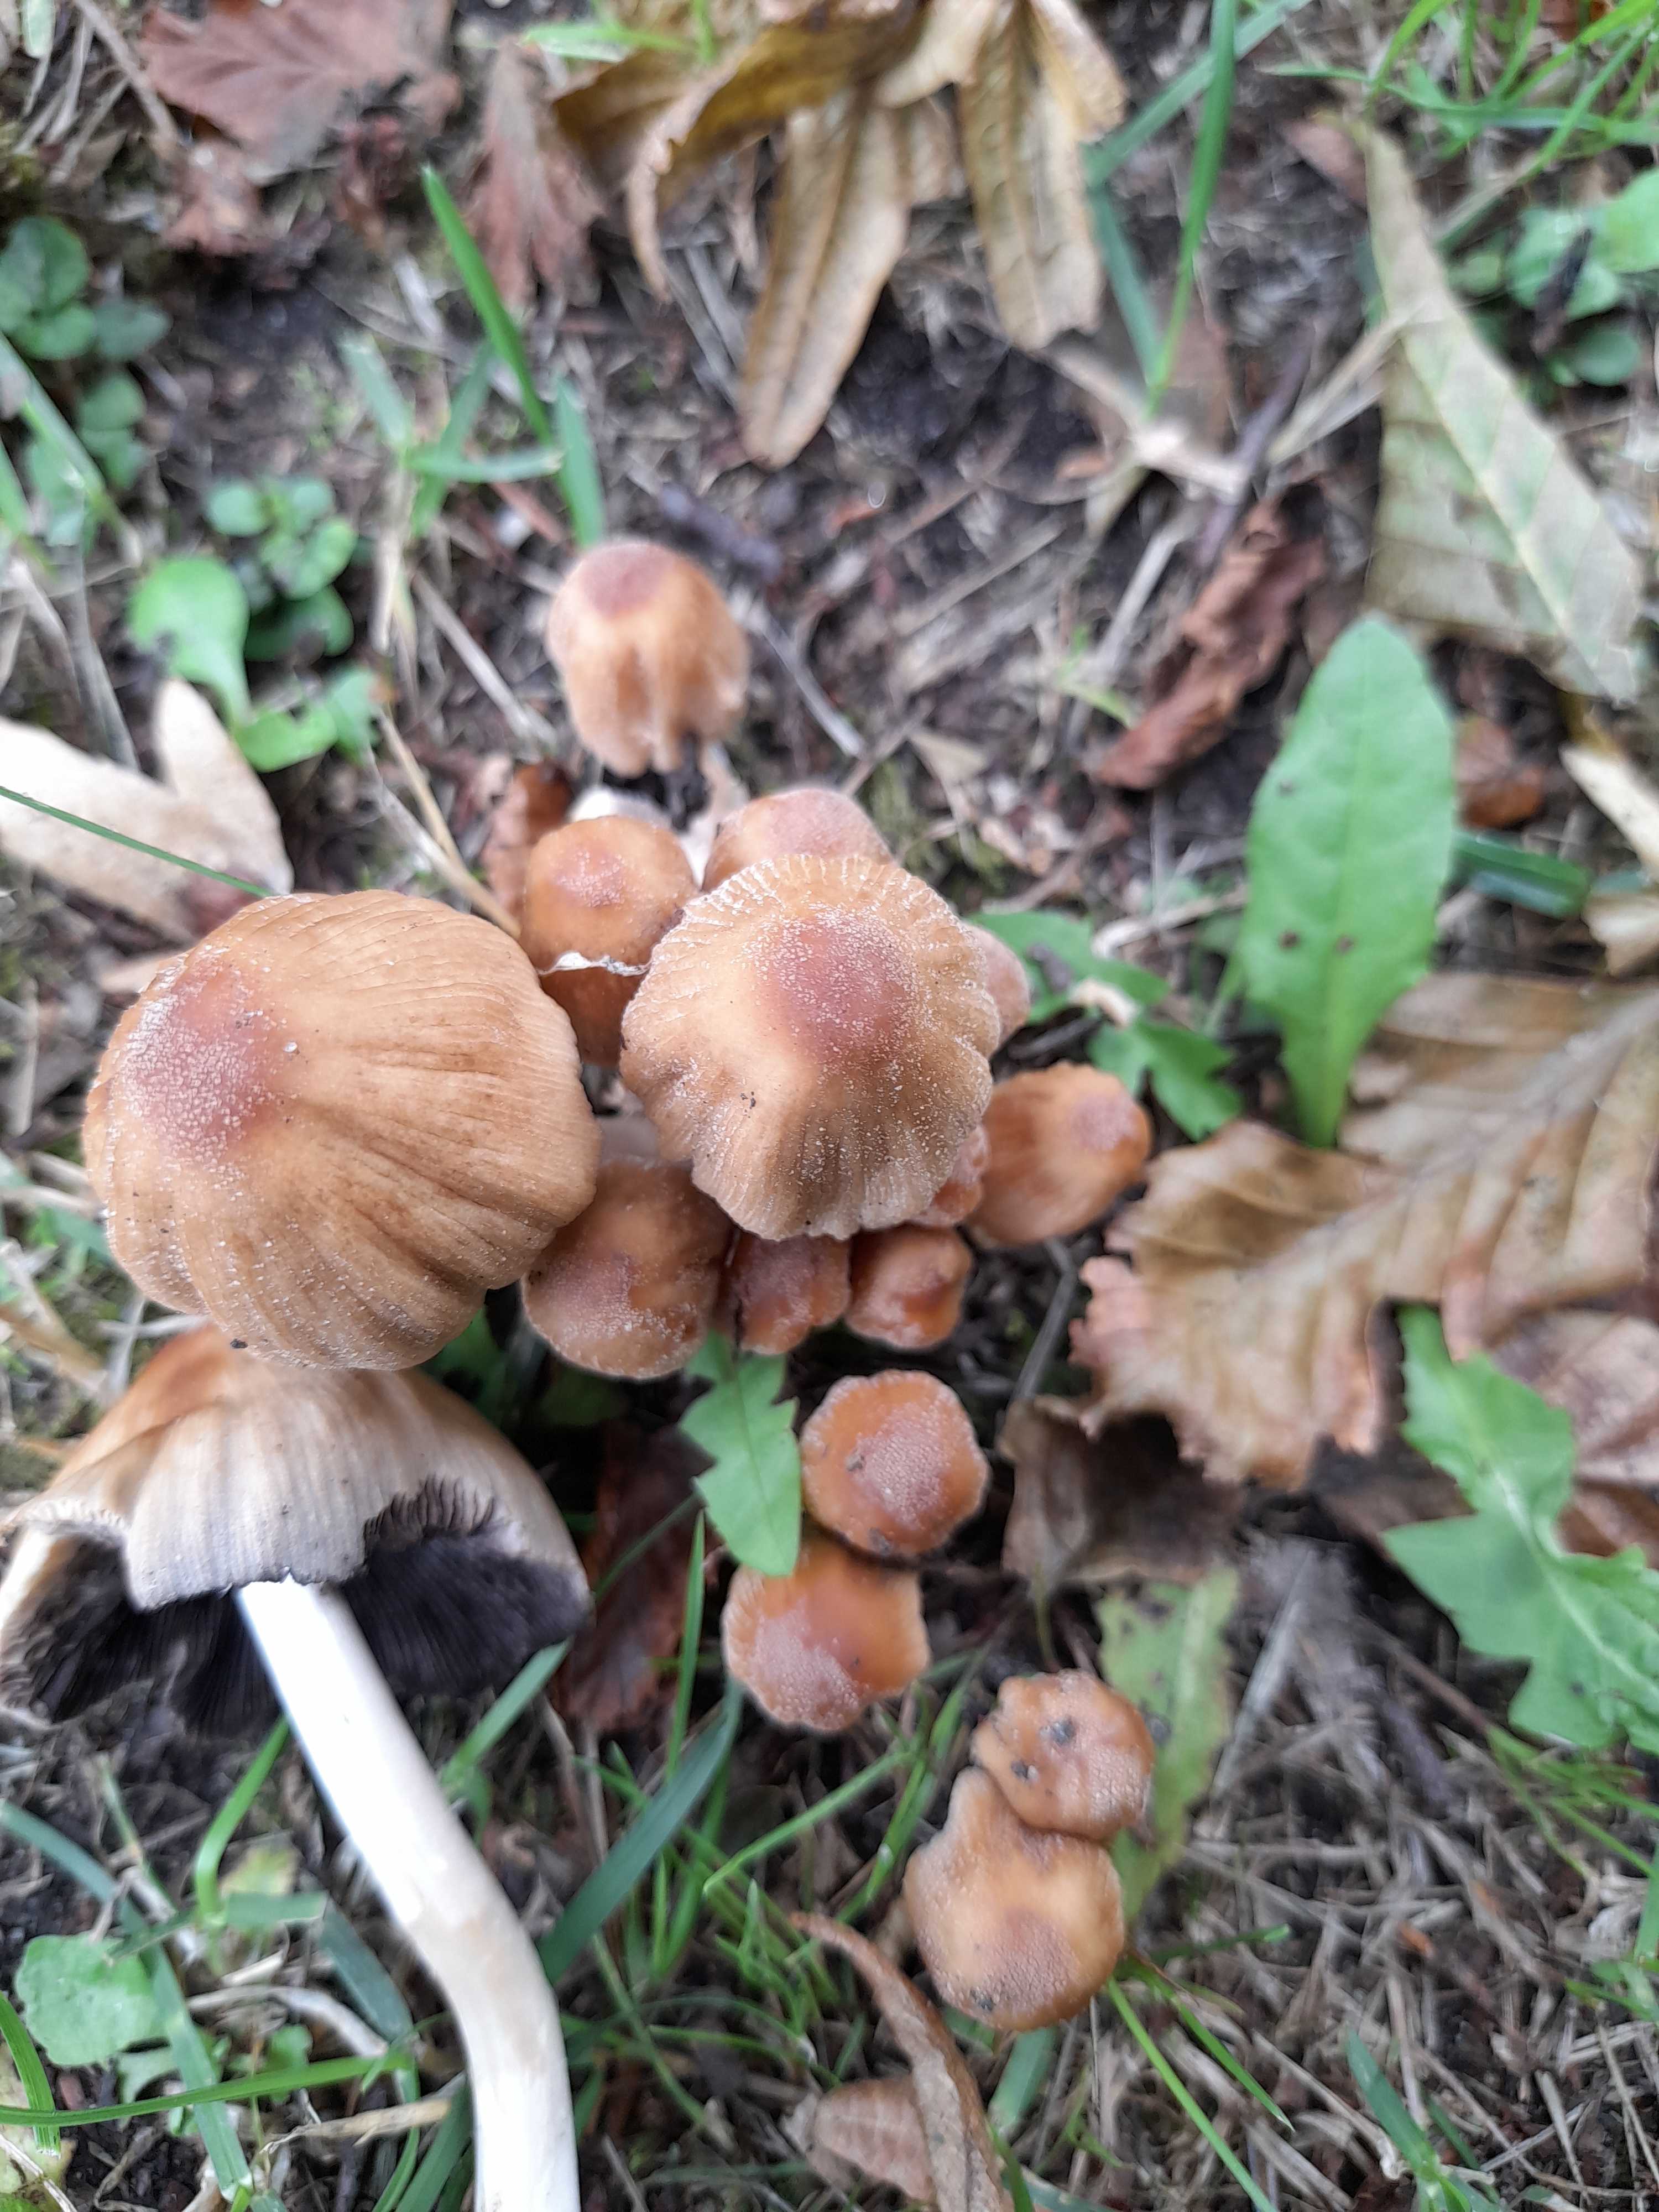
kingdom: Fungi
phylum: Basidiomycota
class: Agaricomycetes
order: Agaricales
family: Psathyrellaceae
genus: Coprinellus
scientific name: Coprinellus micaceus
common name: glimmer-blækhat
